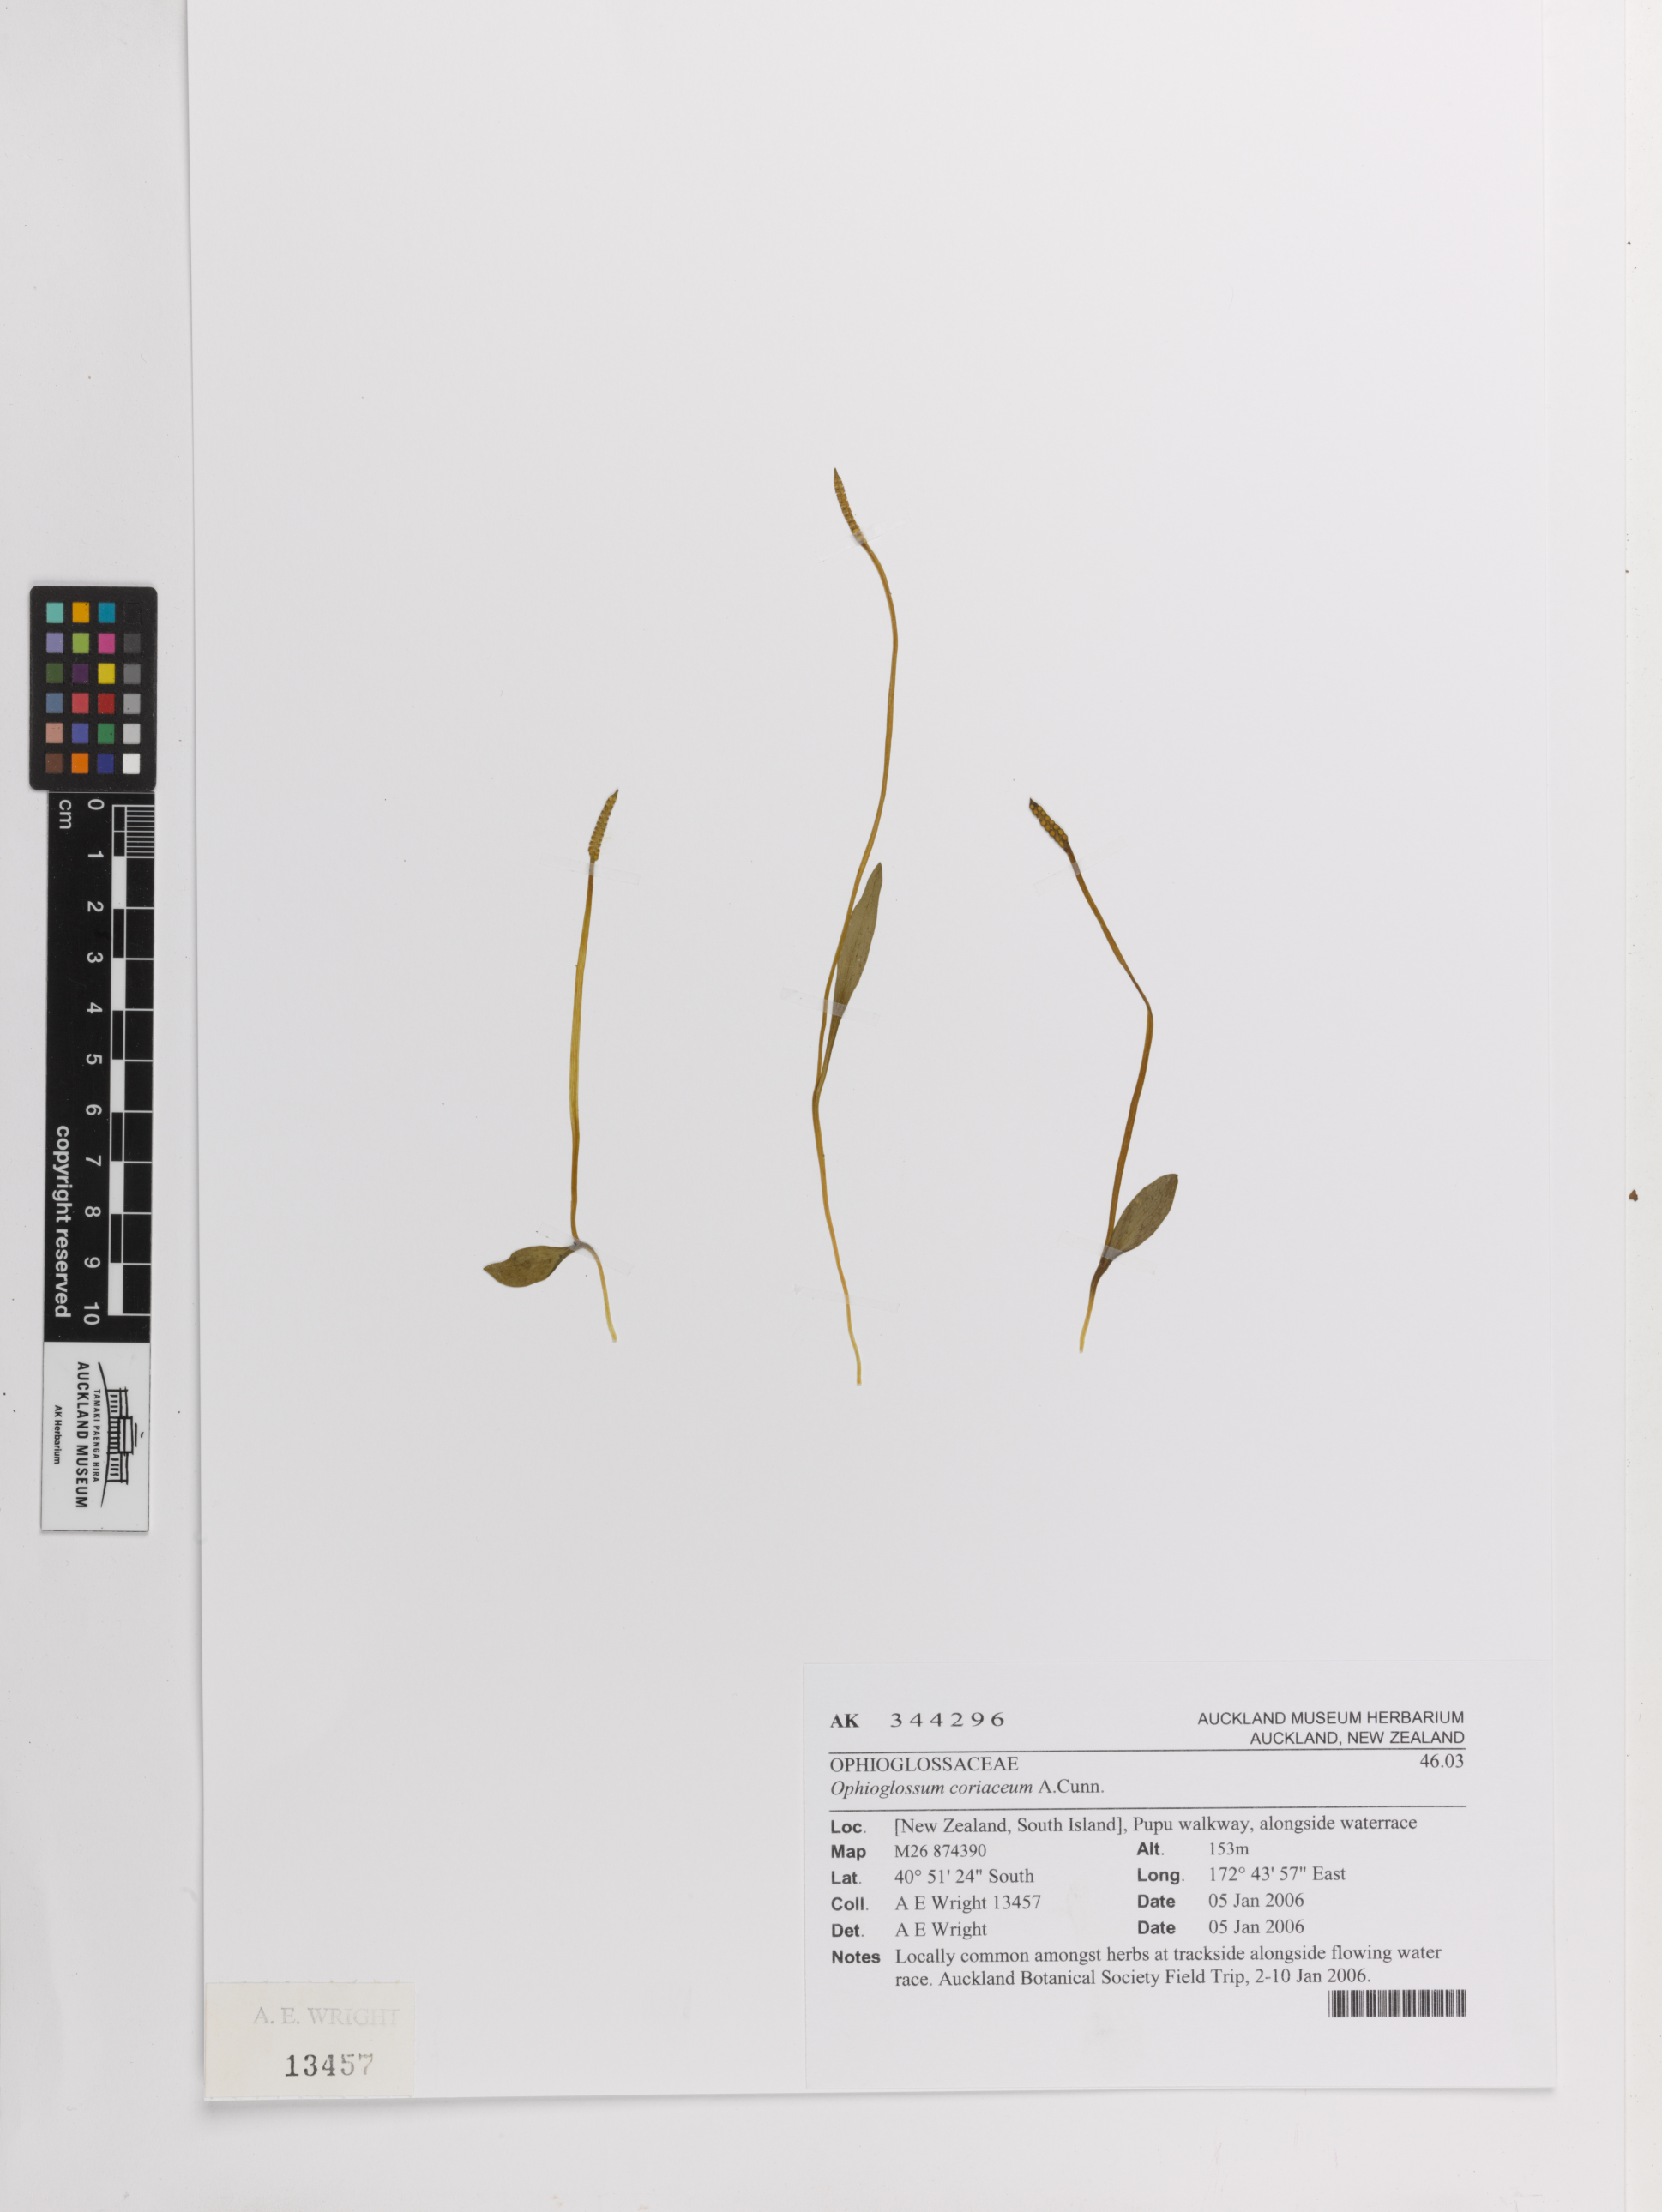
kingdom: Plantae
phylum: Tracheophyta
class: Polypodiopsida
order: Ophioglossales
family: Ophioglossaceae
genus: Ophioglossum
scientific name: Ophioglossum coriaceum
